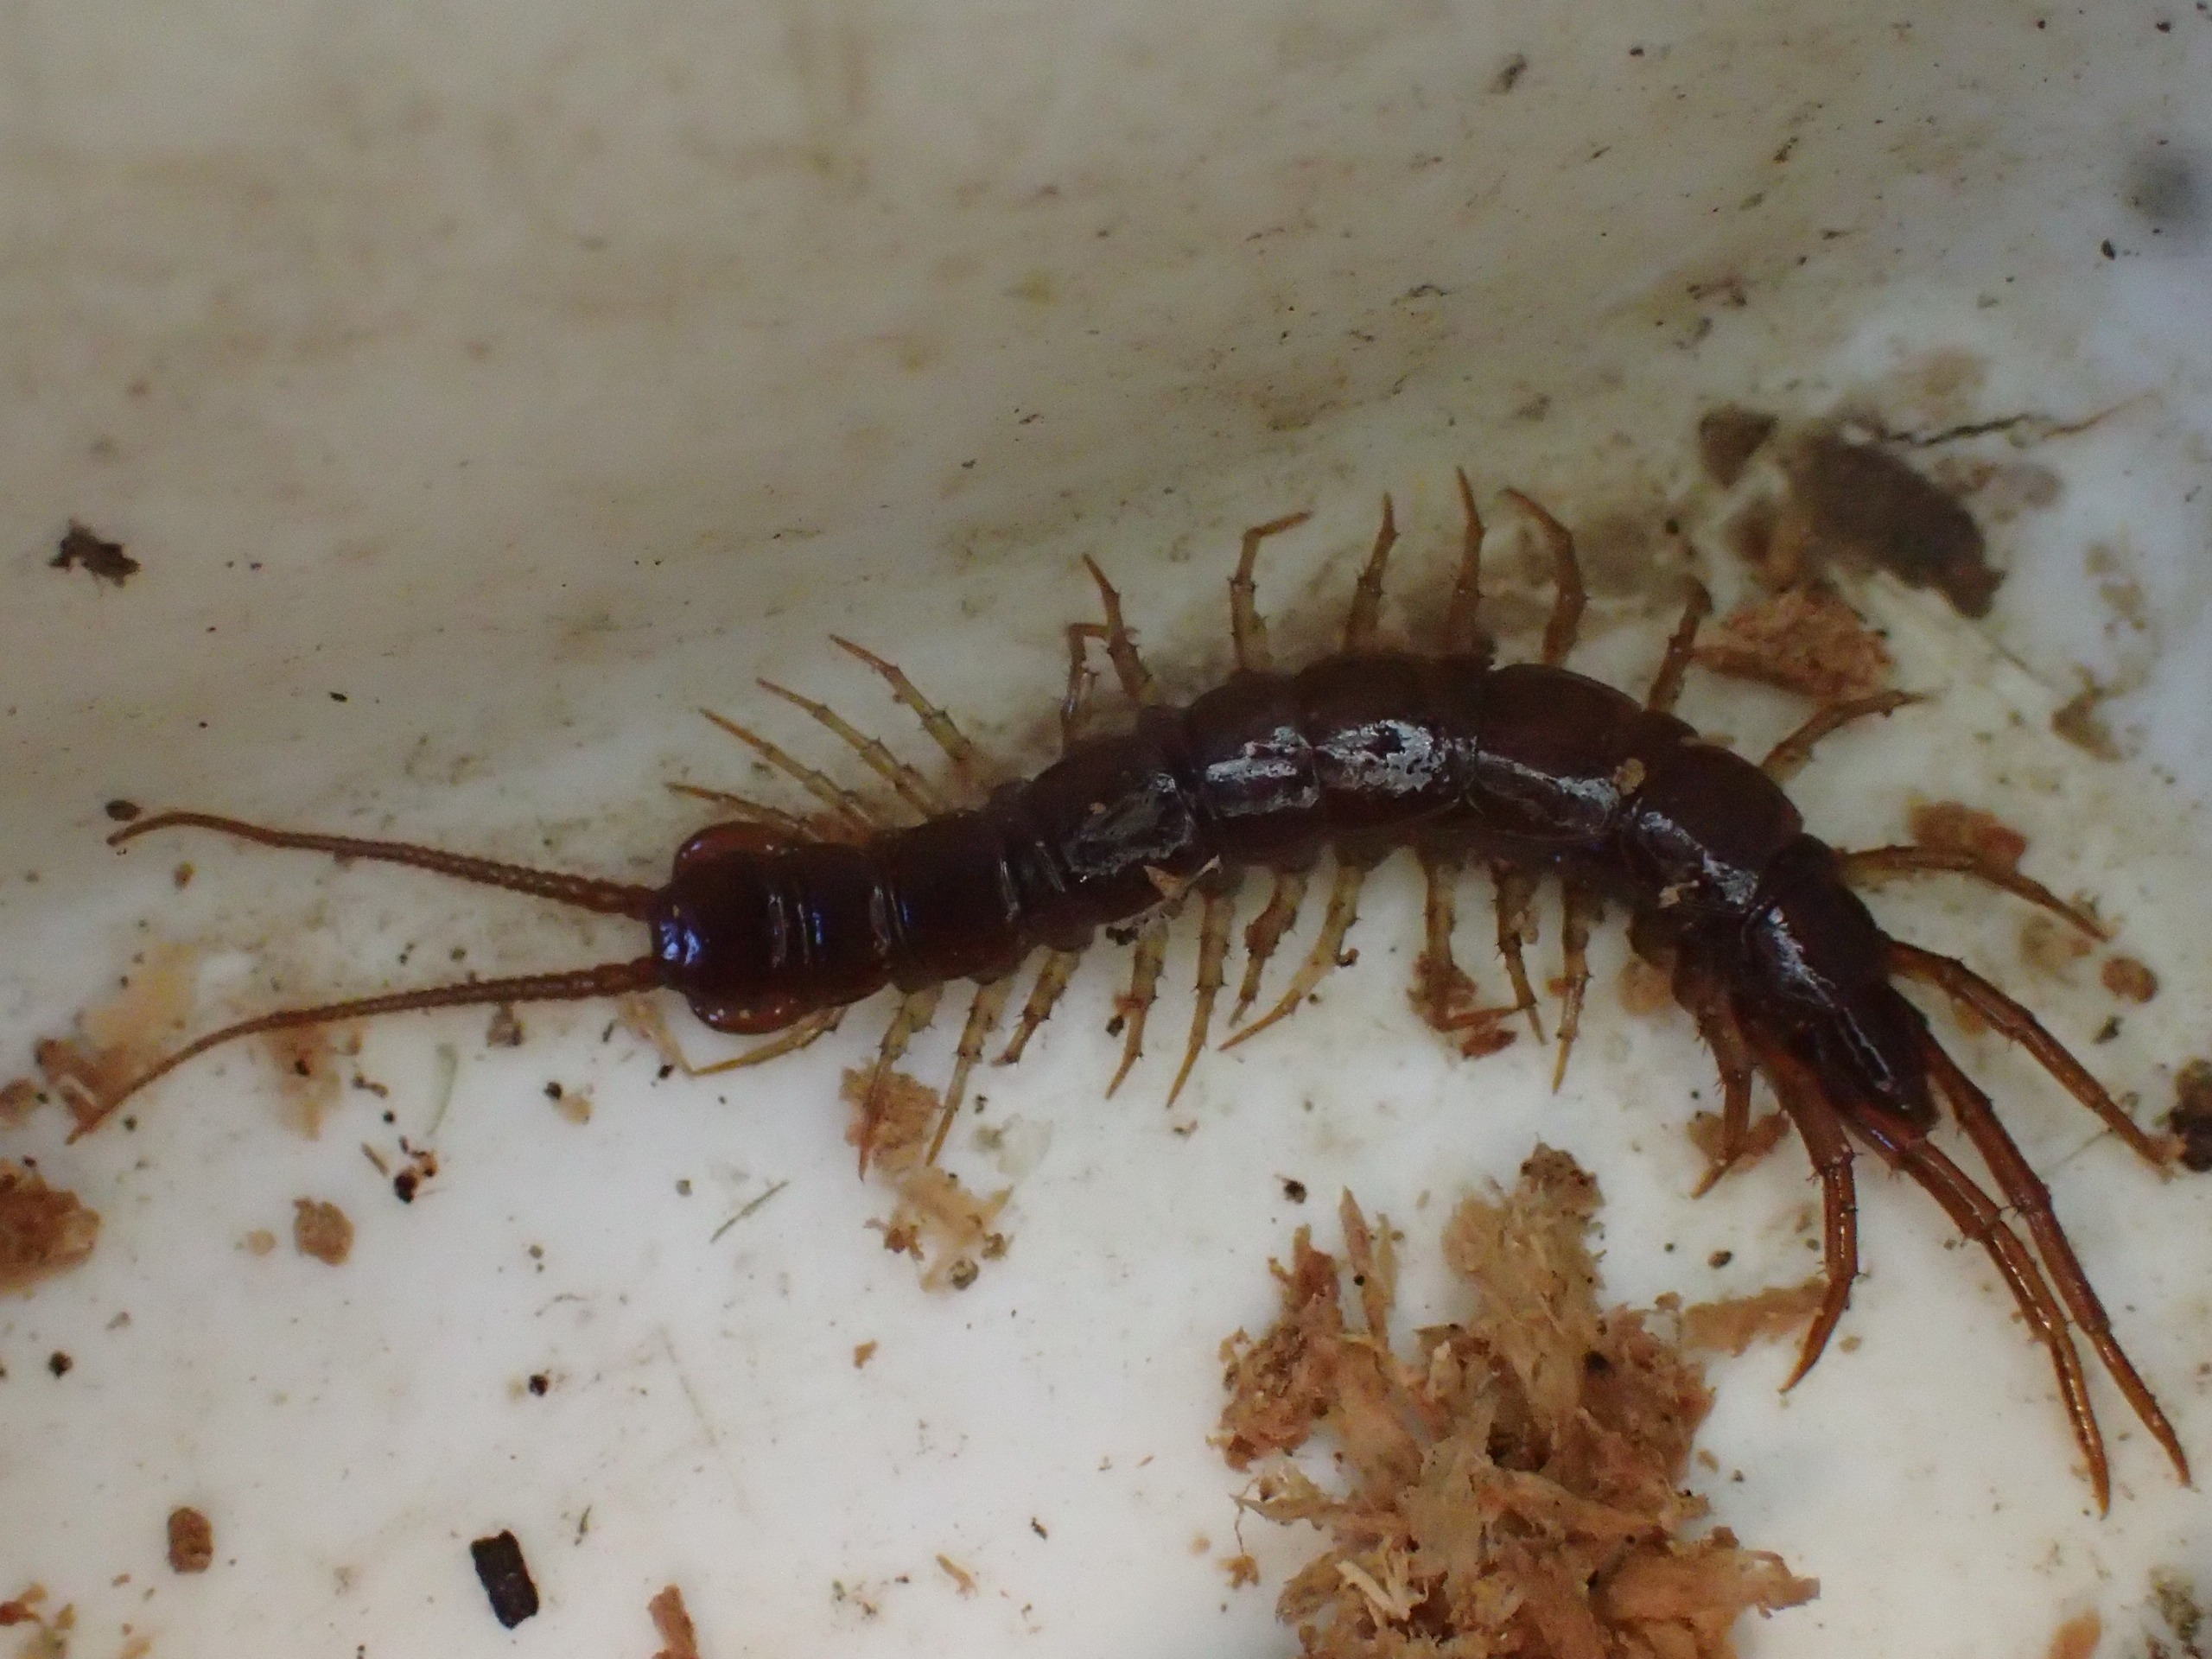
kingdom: Animalia
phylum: Arthropoda
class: Chilopoda
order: Lithobiomorpha
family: Lithobiidae
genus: Lithobius
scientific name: Lithobius forficatus
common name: Stenskolopender
